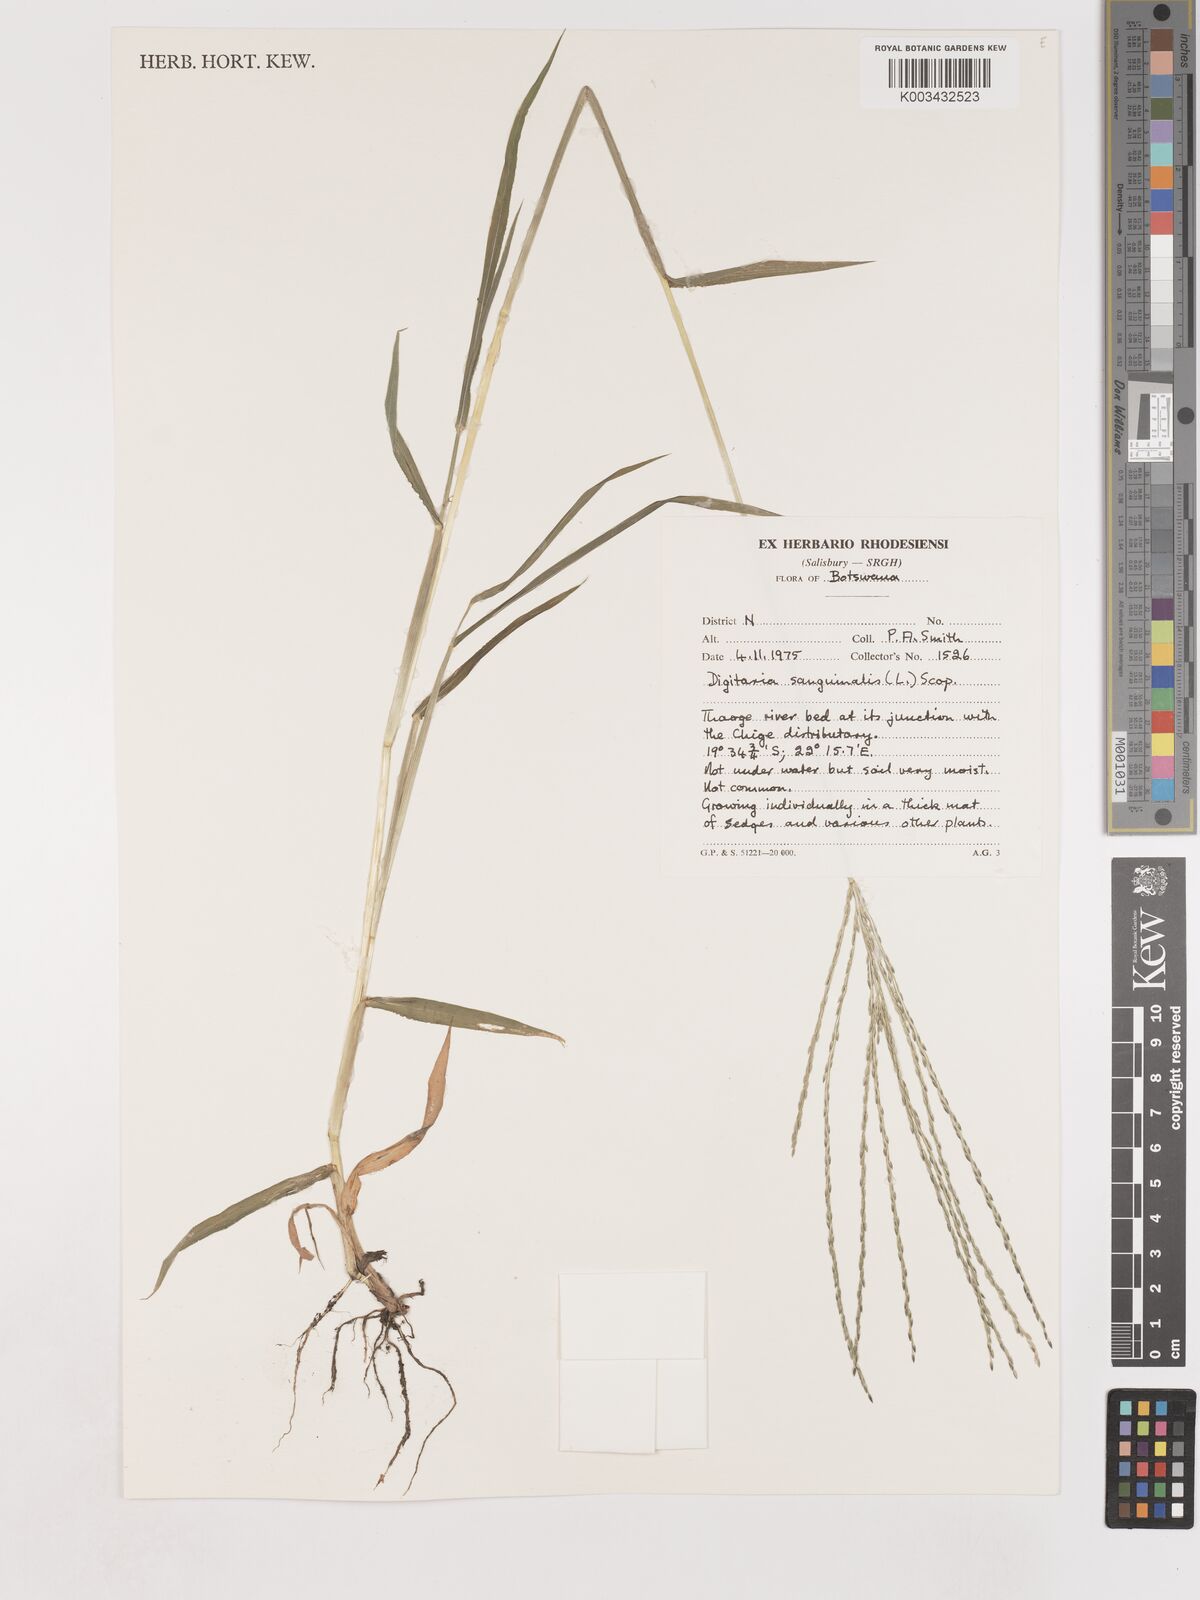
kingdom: Plantae
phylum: Tracheophyta
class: Liliopsida
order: Poales
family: Poaceae
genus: Digitaria
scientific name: Digitaria sanguinalis
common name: Hairy crabgrass
